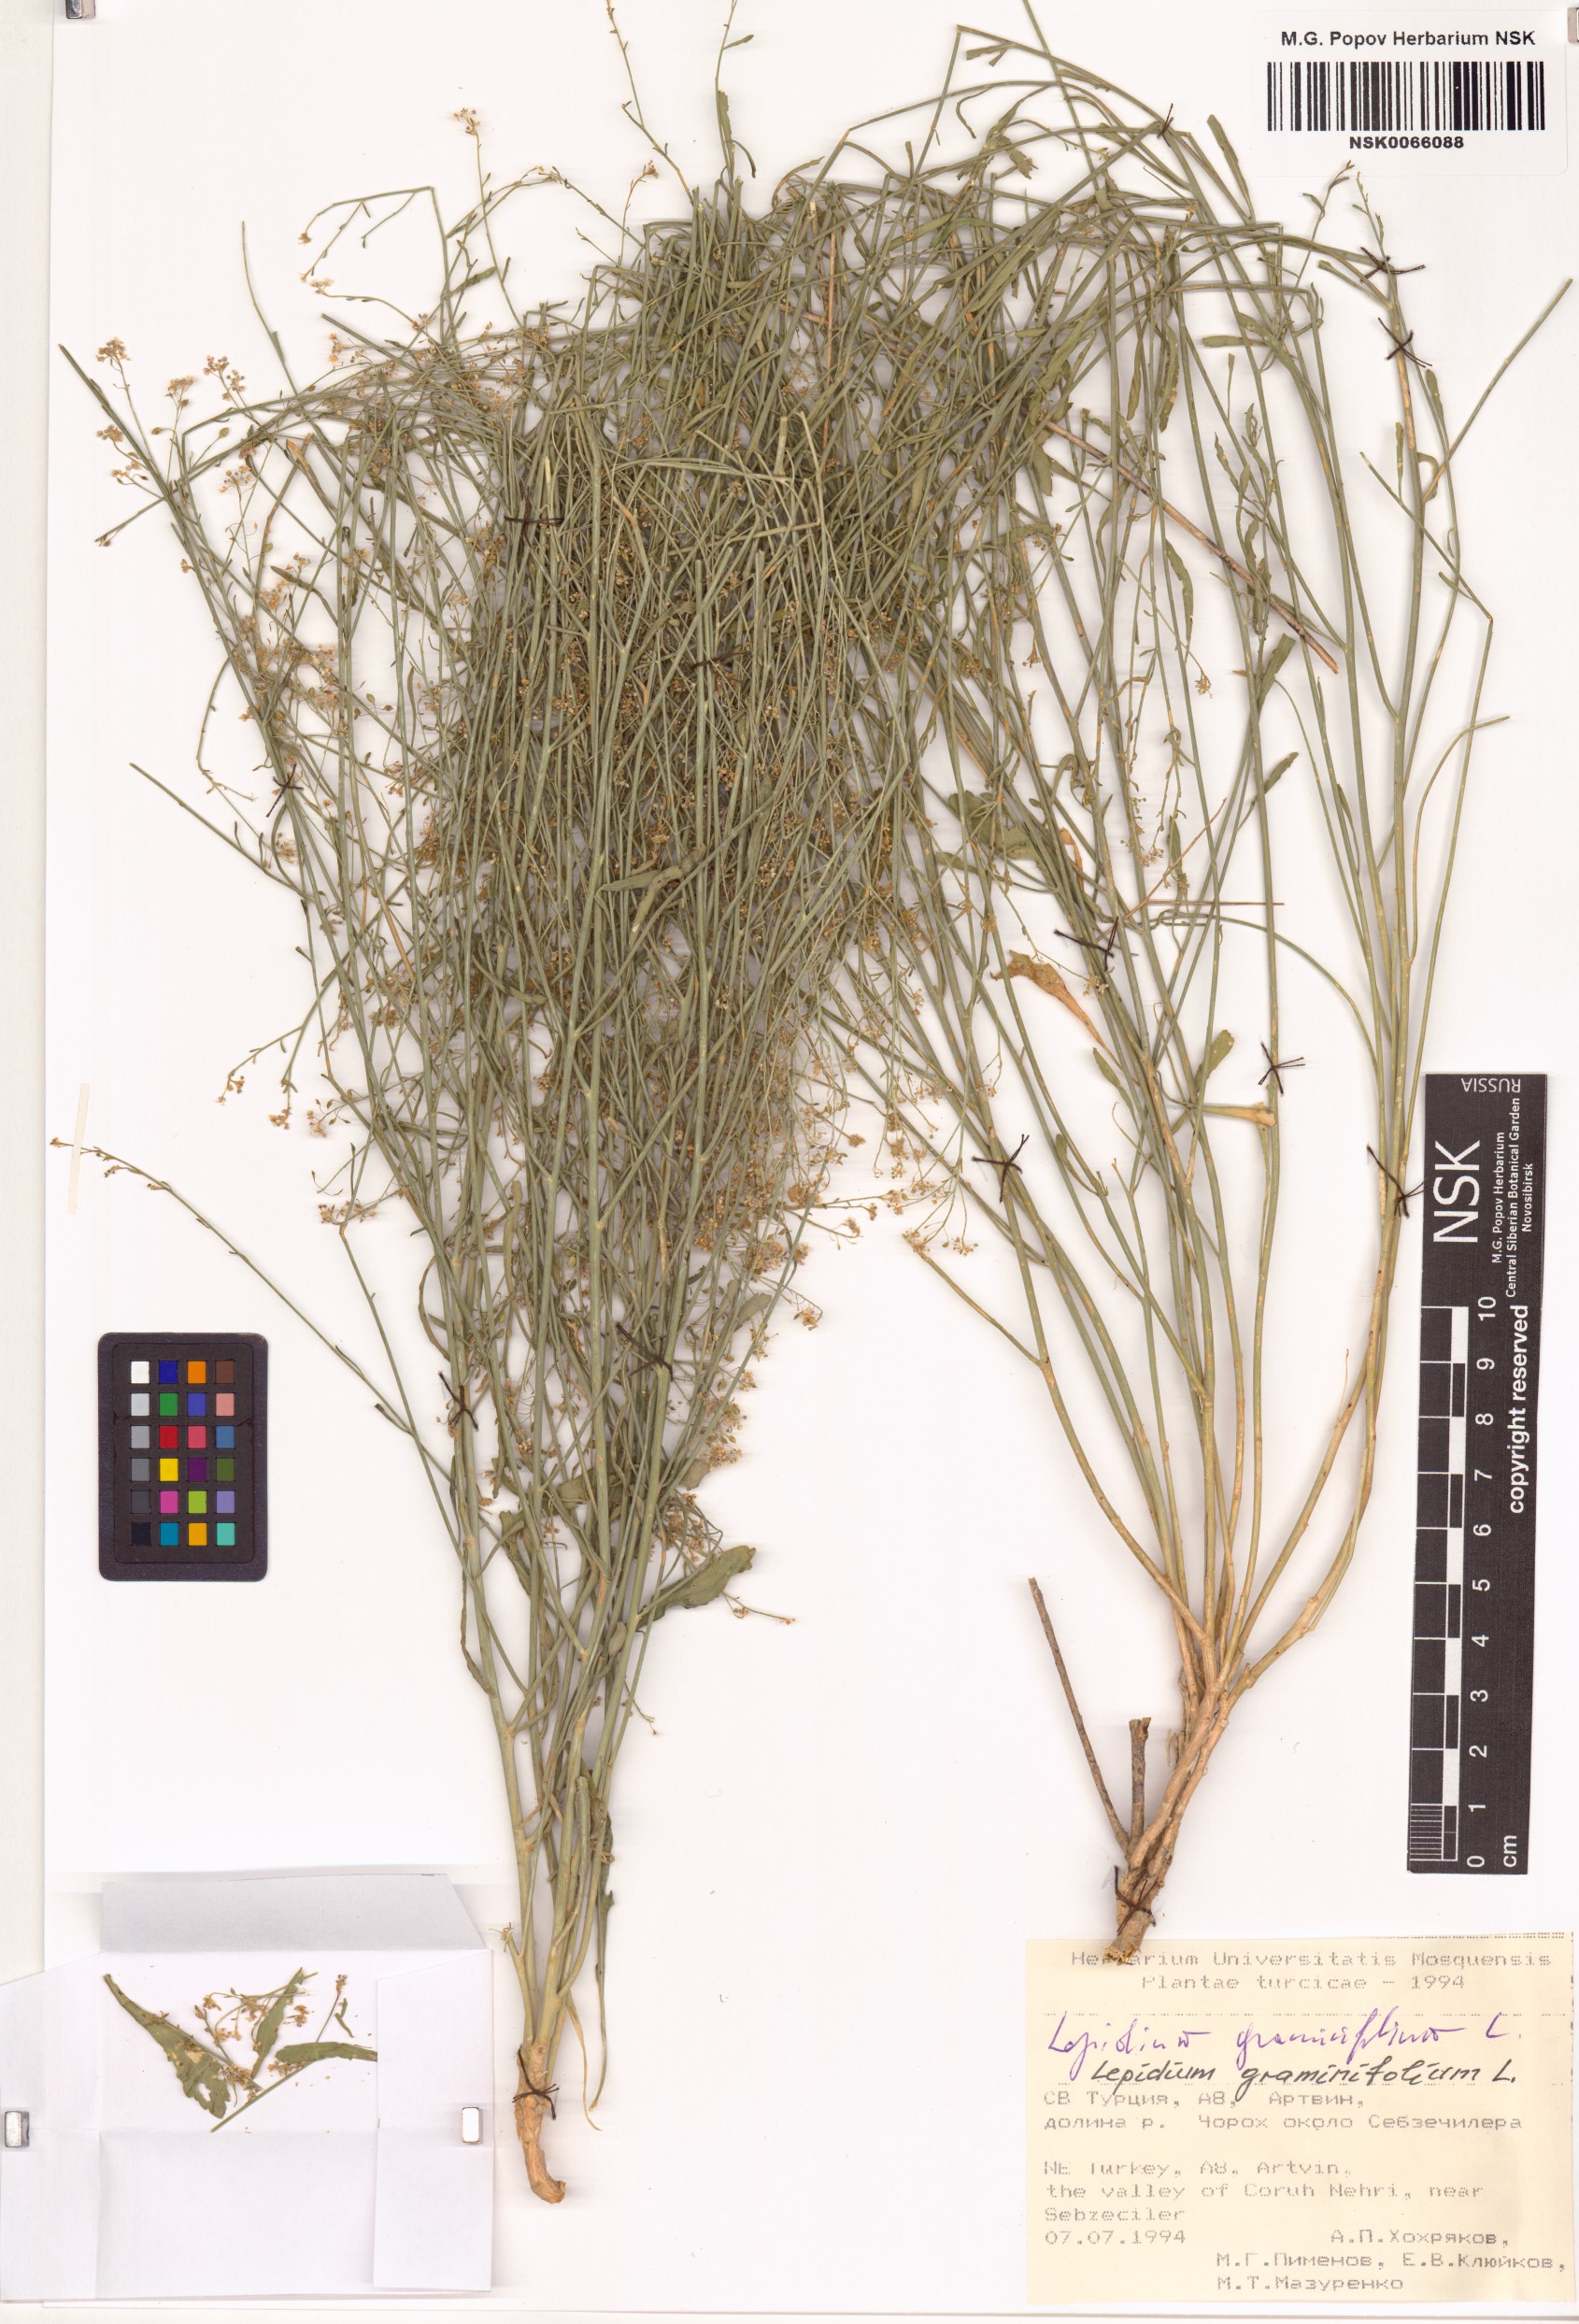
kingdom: Plantae
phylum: Tracheophyta
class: Magnoliopsida
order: Brassicales
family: Brassicaceae
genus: Lepidium
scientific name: Lepidium graminifolium
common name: Tall pepperwort
